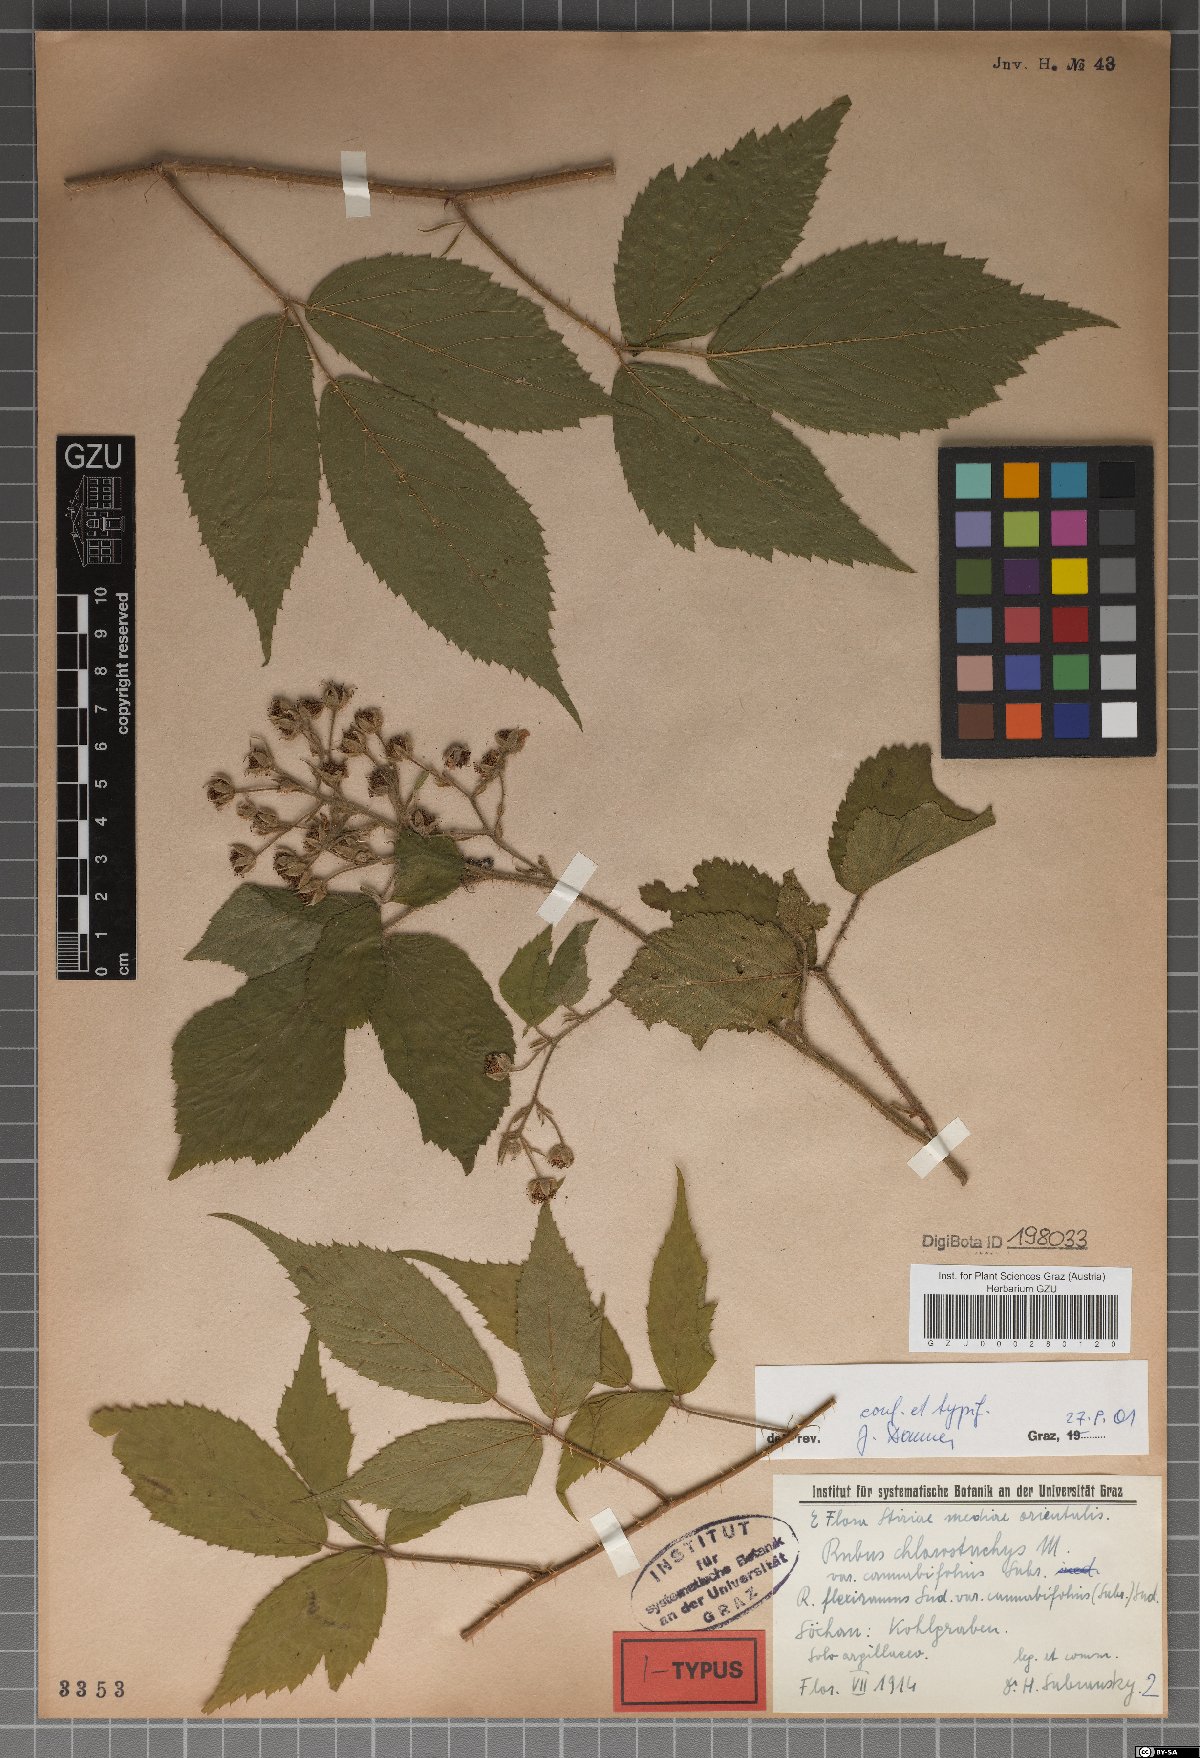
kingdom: Plantae
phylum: Tracheophyta
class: Magnoliopsida
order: Rosales
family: Rosaceae
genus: Rubus
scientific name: Rubus chlorostachys
